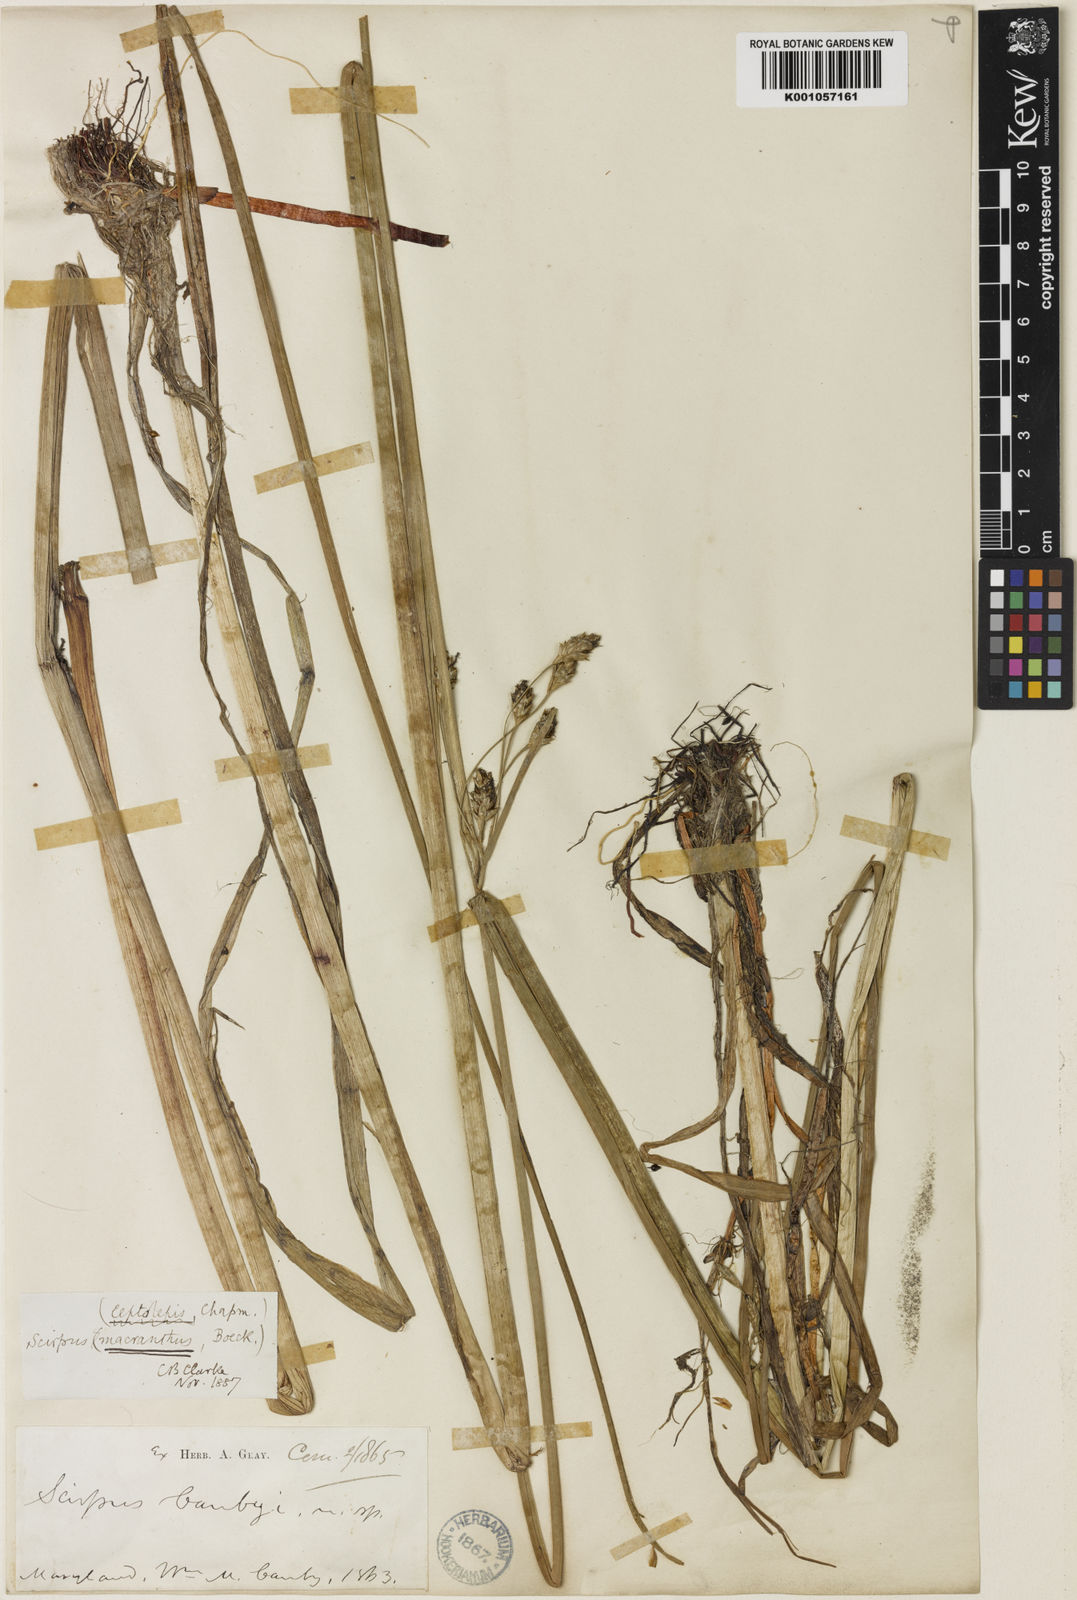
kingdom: Plantae
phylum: Tracheophyta
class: Liliopsida
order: Poales
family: Cyperaceae
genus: Schoenoplectus
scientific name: Schoenoplectus
